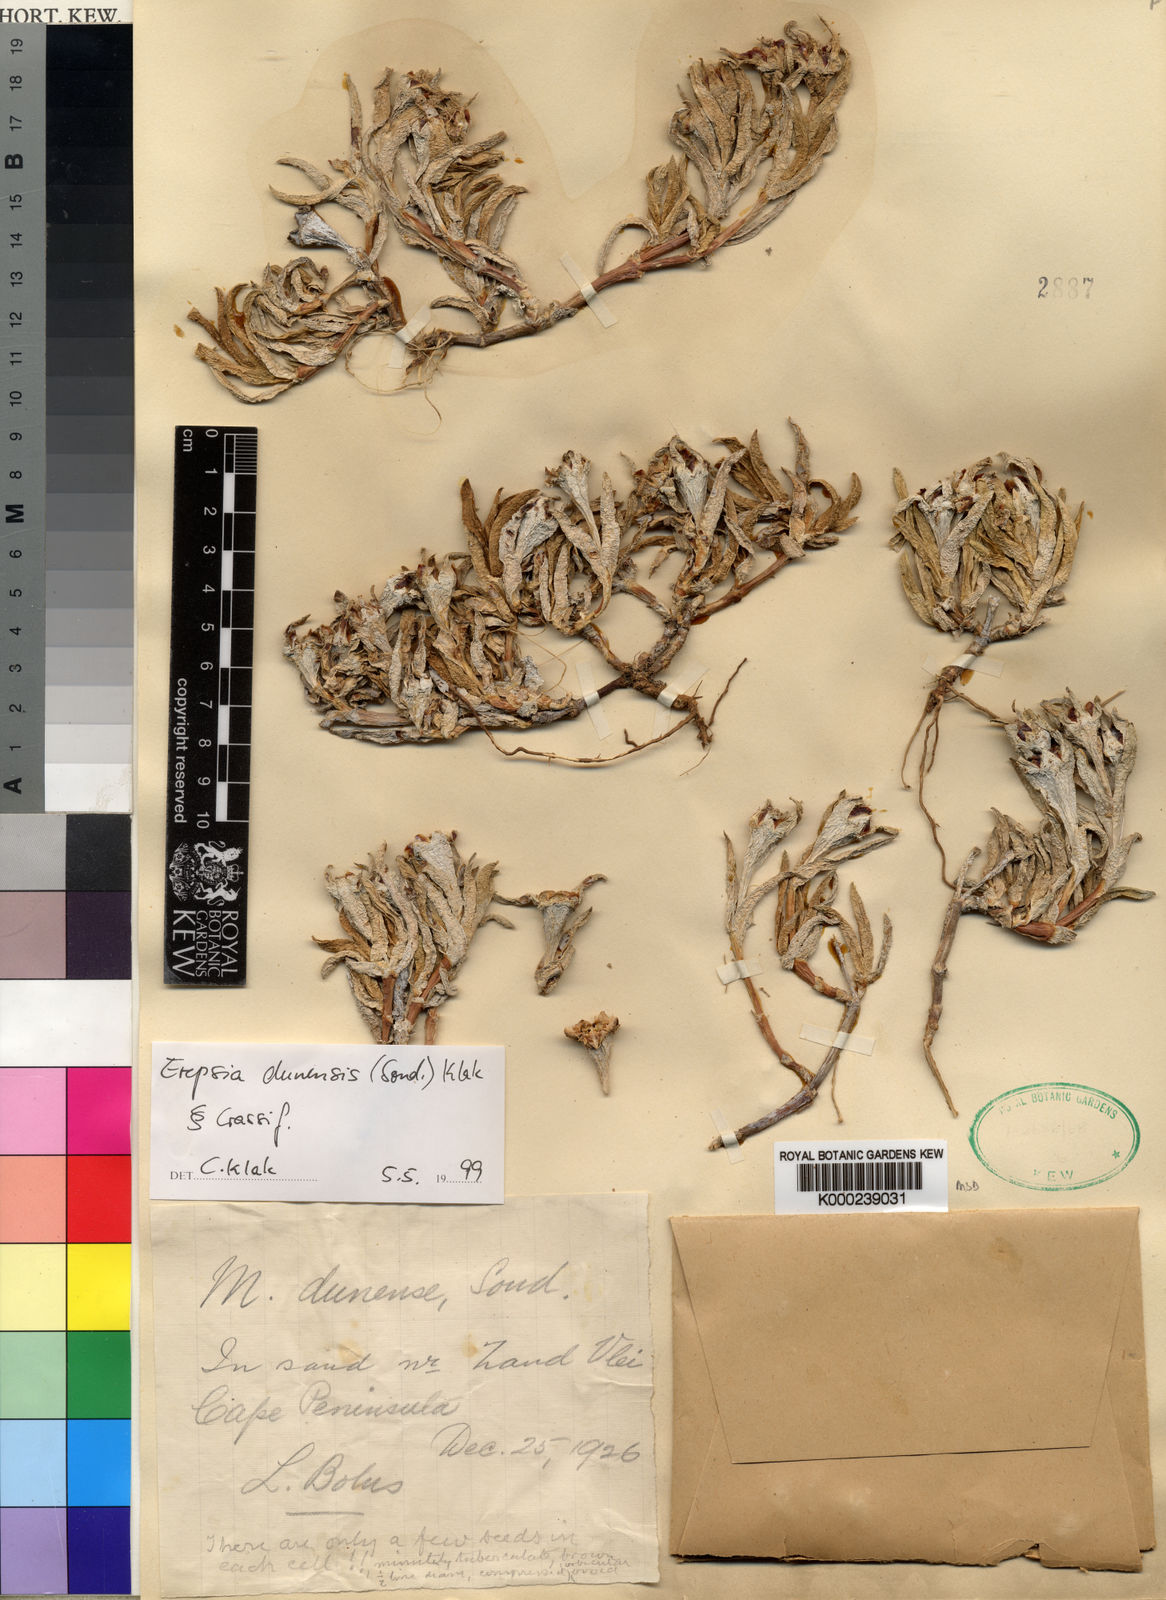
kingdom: Plantae
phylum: Tracheophyta
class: Magnoliopsida
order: Caryophyllales
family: Aizoaceae
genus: Erepsia
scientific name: Erepsia dunensis
